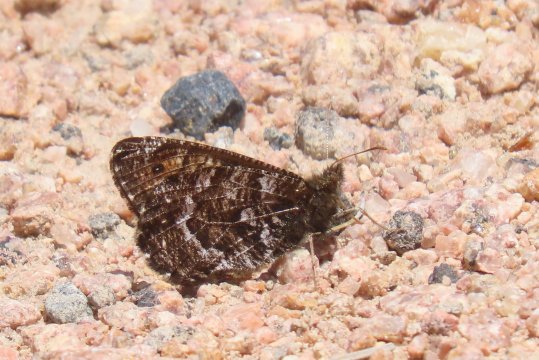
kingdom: Animalia
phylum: Arthropoda
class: Insecta
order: Lepidoptera
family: Nymphalidae
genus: Oeneis
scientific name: Oeneis chryxus
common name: Chryxus Arctic
